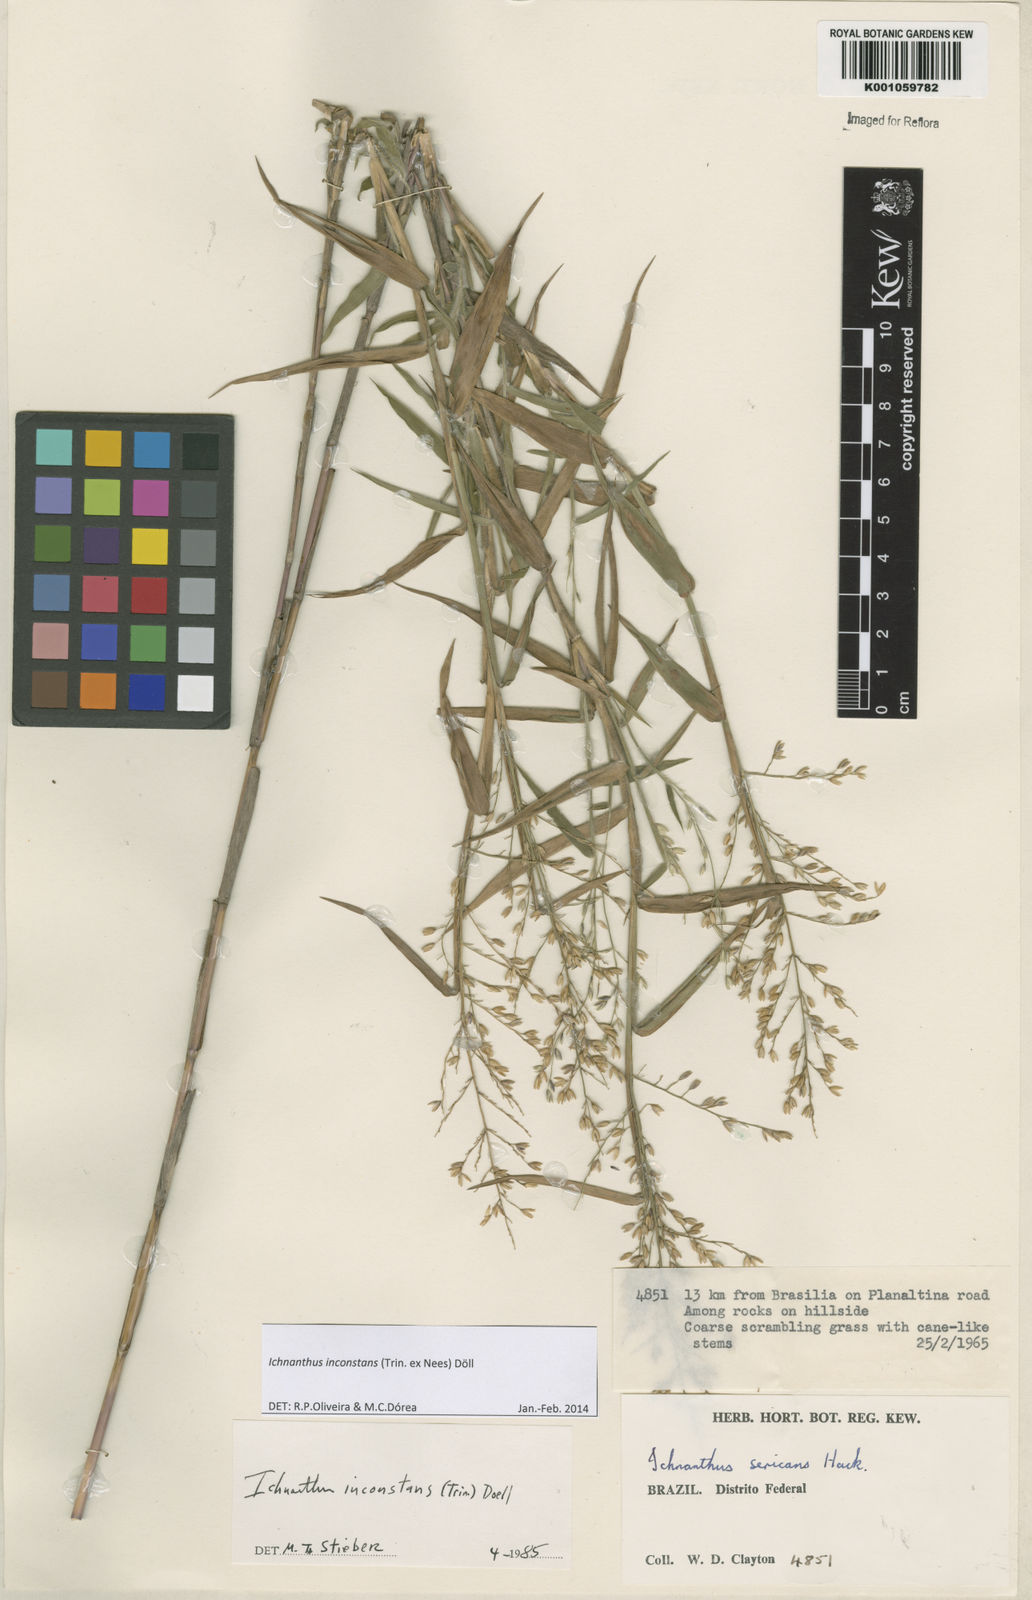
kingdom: Plantae
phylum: Tracheophyta
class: Liliopsida
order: Poales
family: Poaceae
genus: Ichnanthus
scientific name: Ichnanthus
